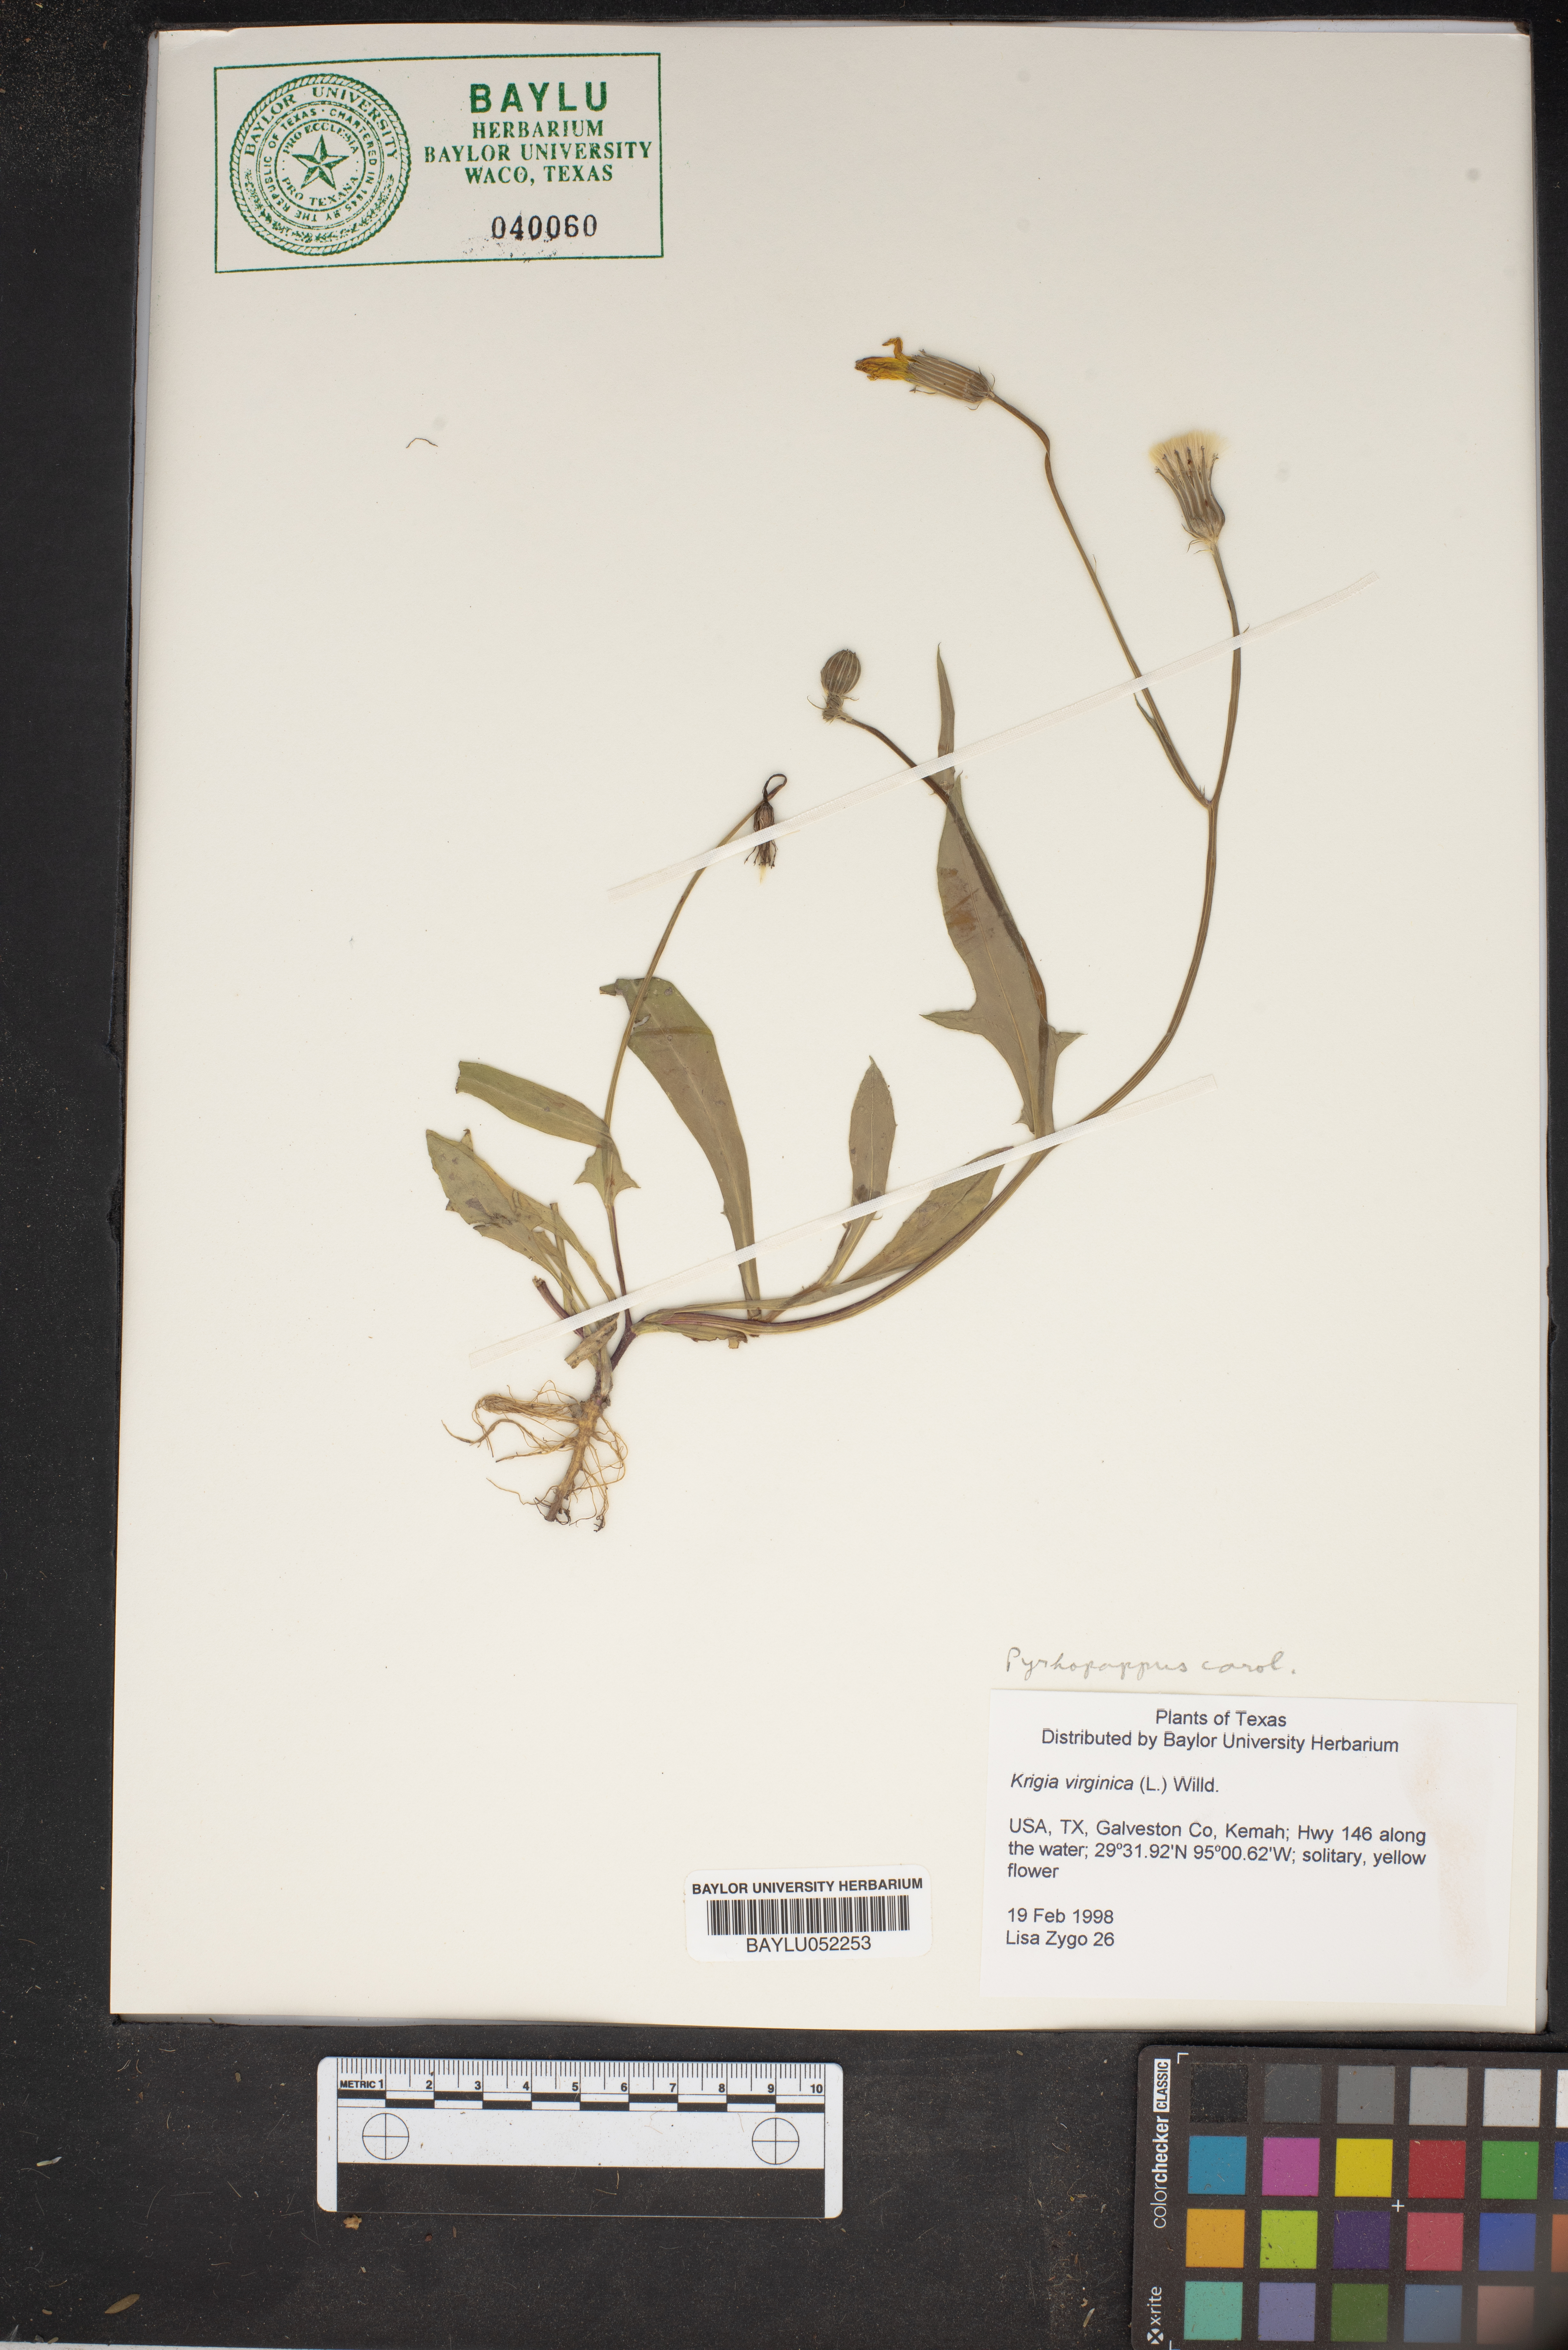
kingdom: Plantae
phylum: Tracheophyta
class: Magnoliopsida
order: Asterales
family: Asteraceae
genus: Krigia
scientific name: Krigia virginica
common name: Virginia dwarf-dandelion
